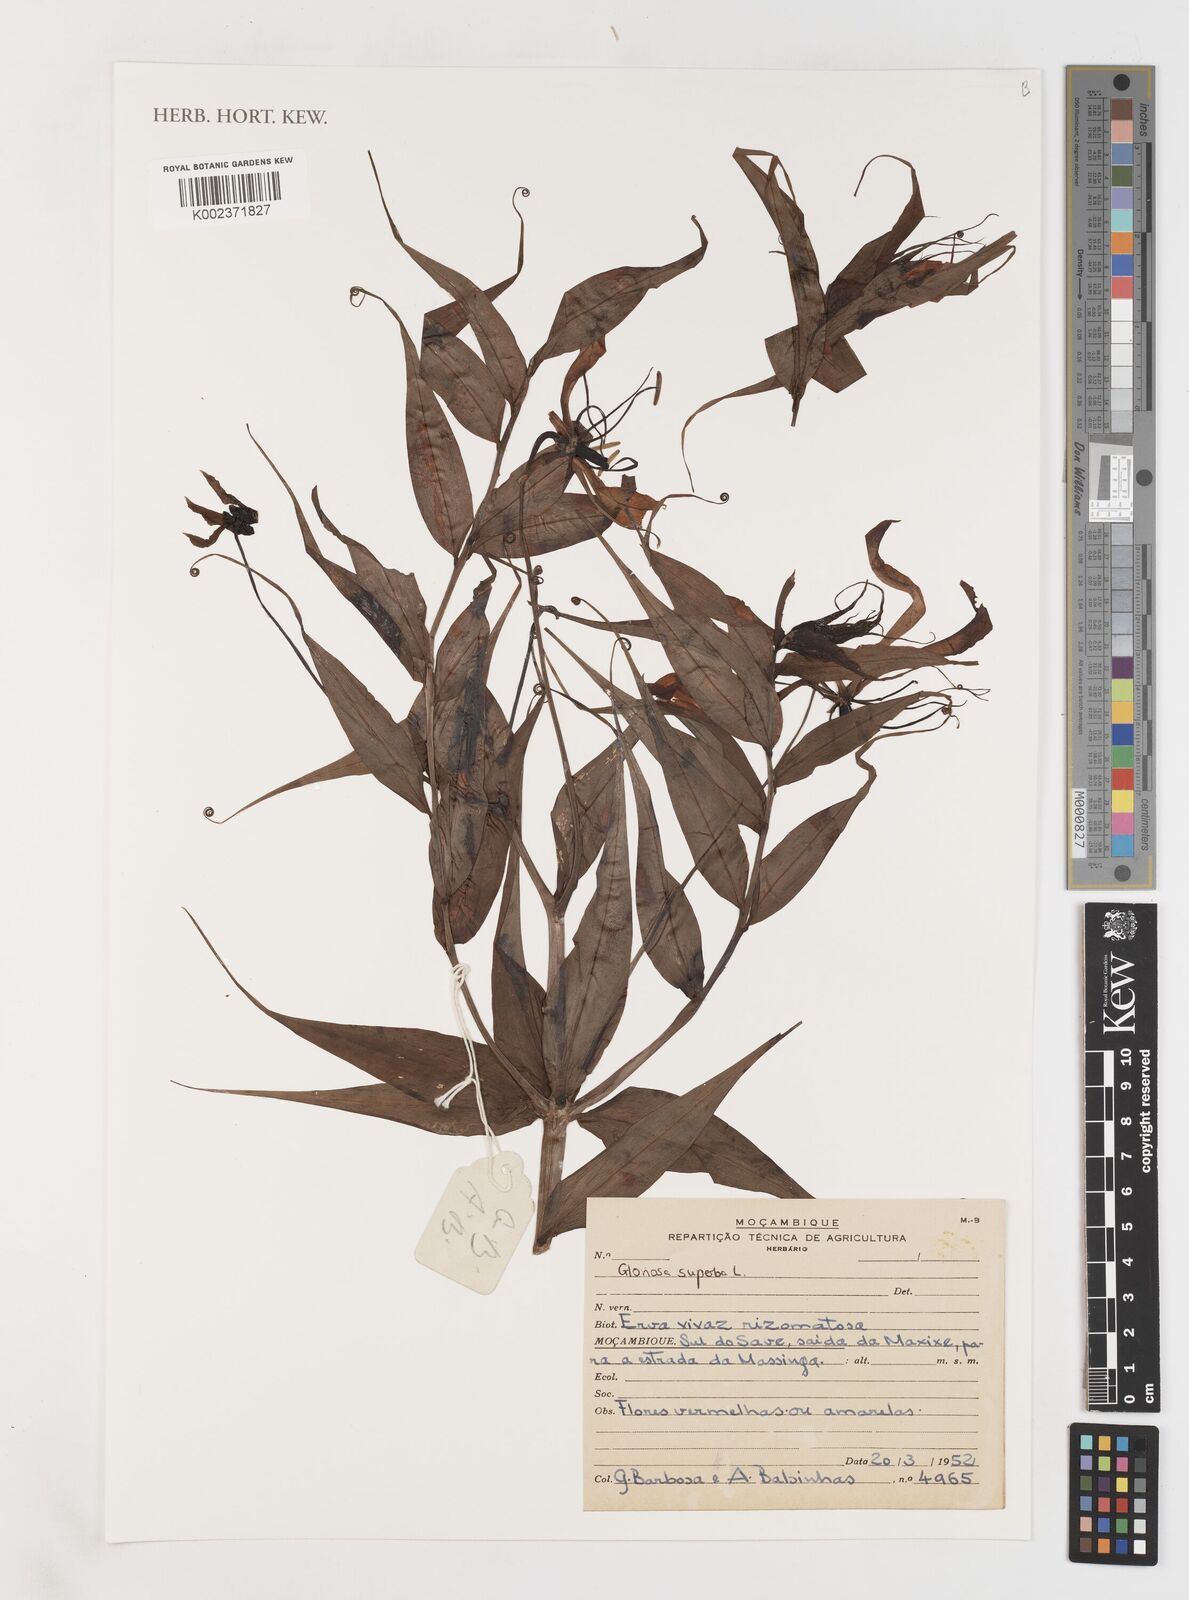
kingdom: Plantae
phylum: Tracheophyta
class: Liliopsida
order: Liliales
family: Colchicaceae
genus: Gloriosa
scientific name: Gloriosa simplex
